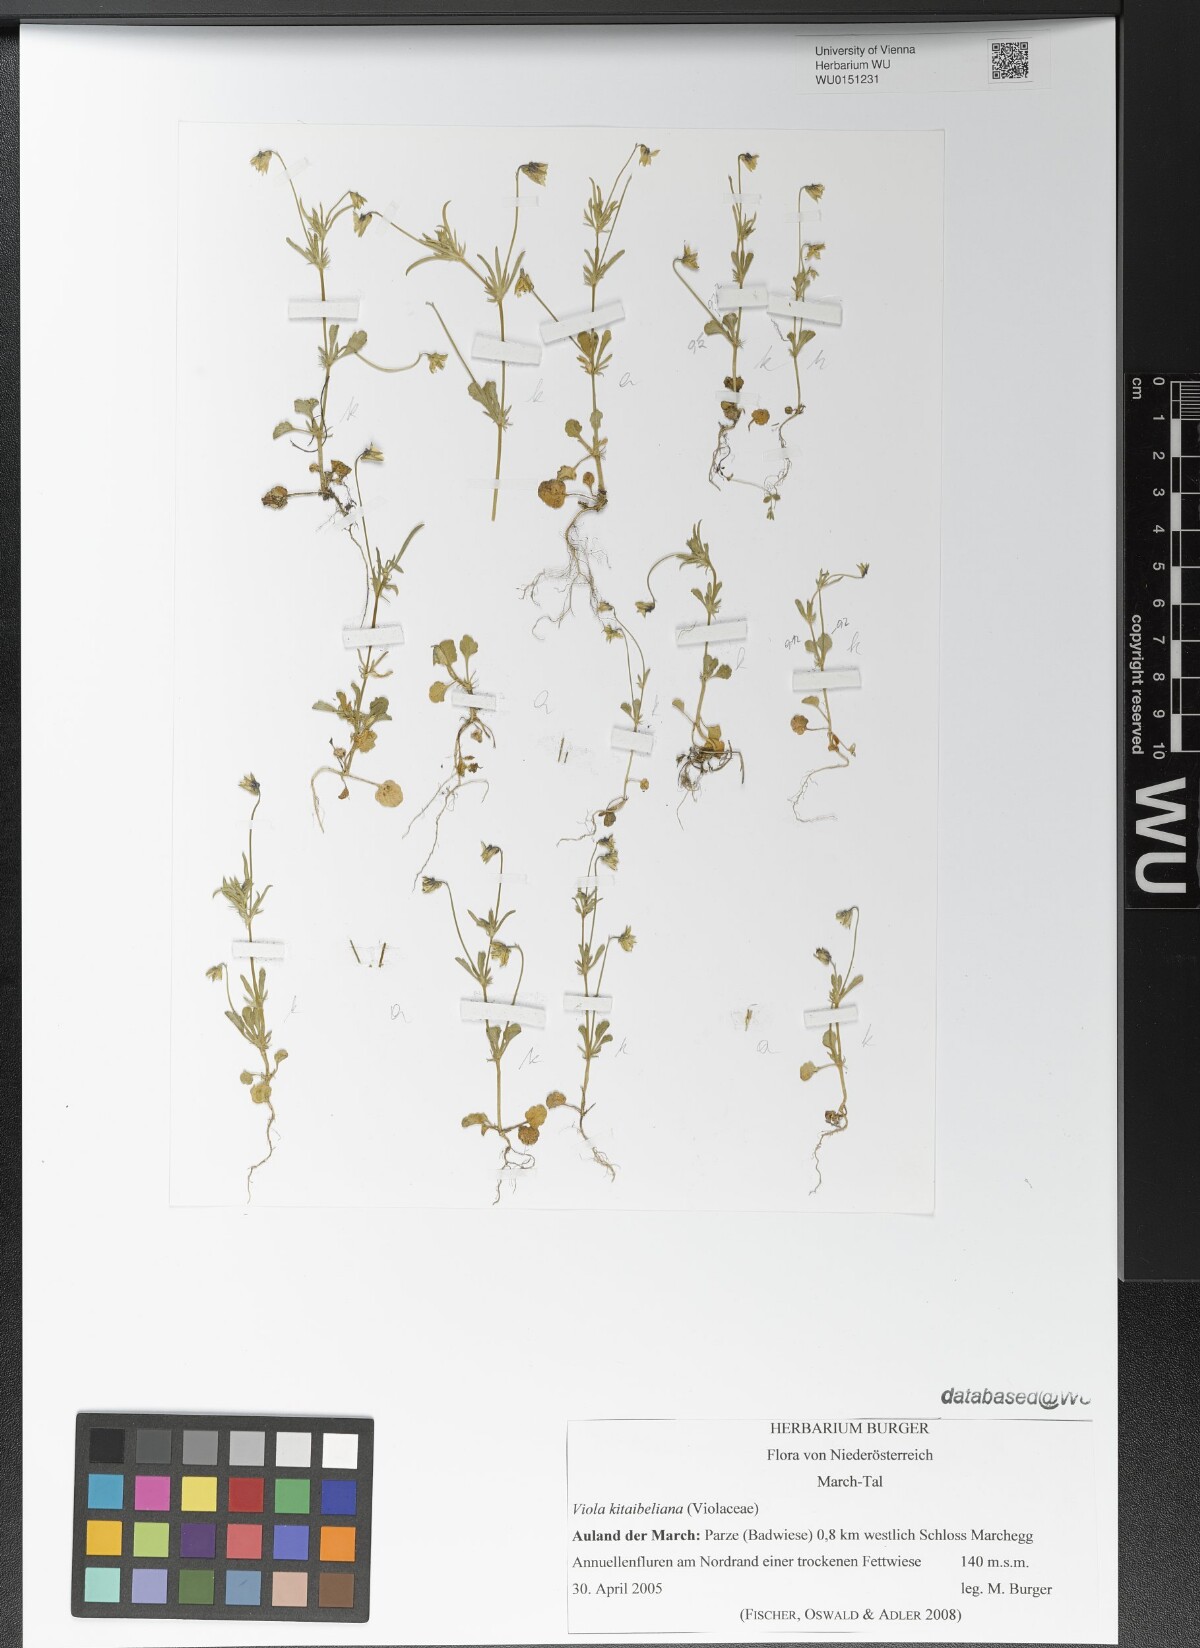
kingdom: Plantae
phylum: Tracheophyta
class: Magnoliopsida
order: Malpighiales
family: Violaceae
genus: Viola
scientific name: Viola kitaibeliana
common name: Dwarf pansy
